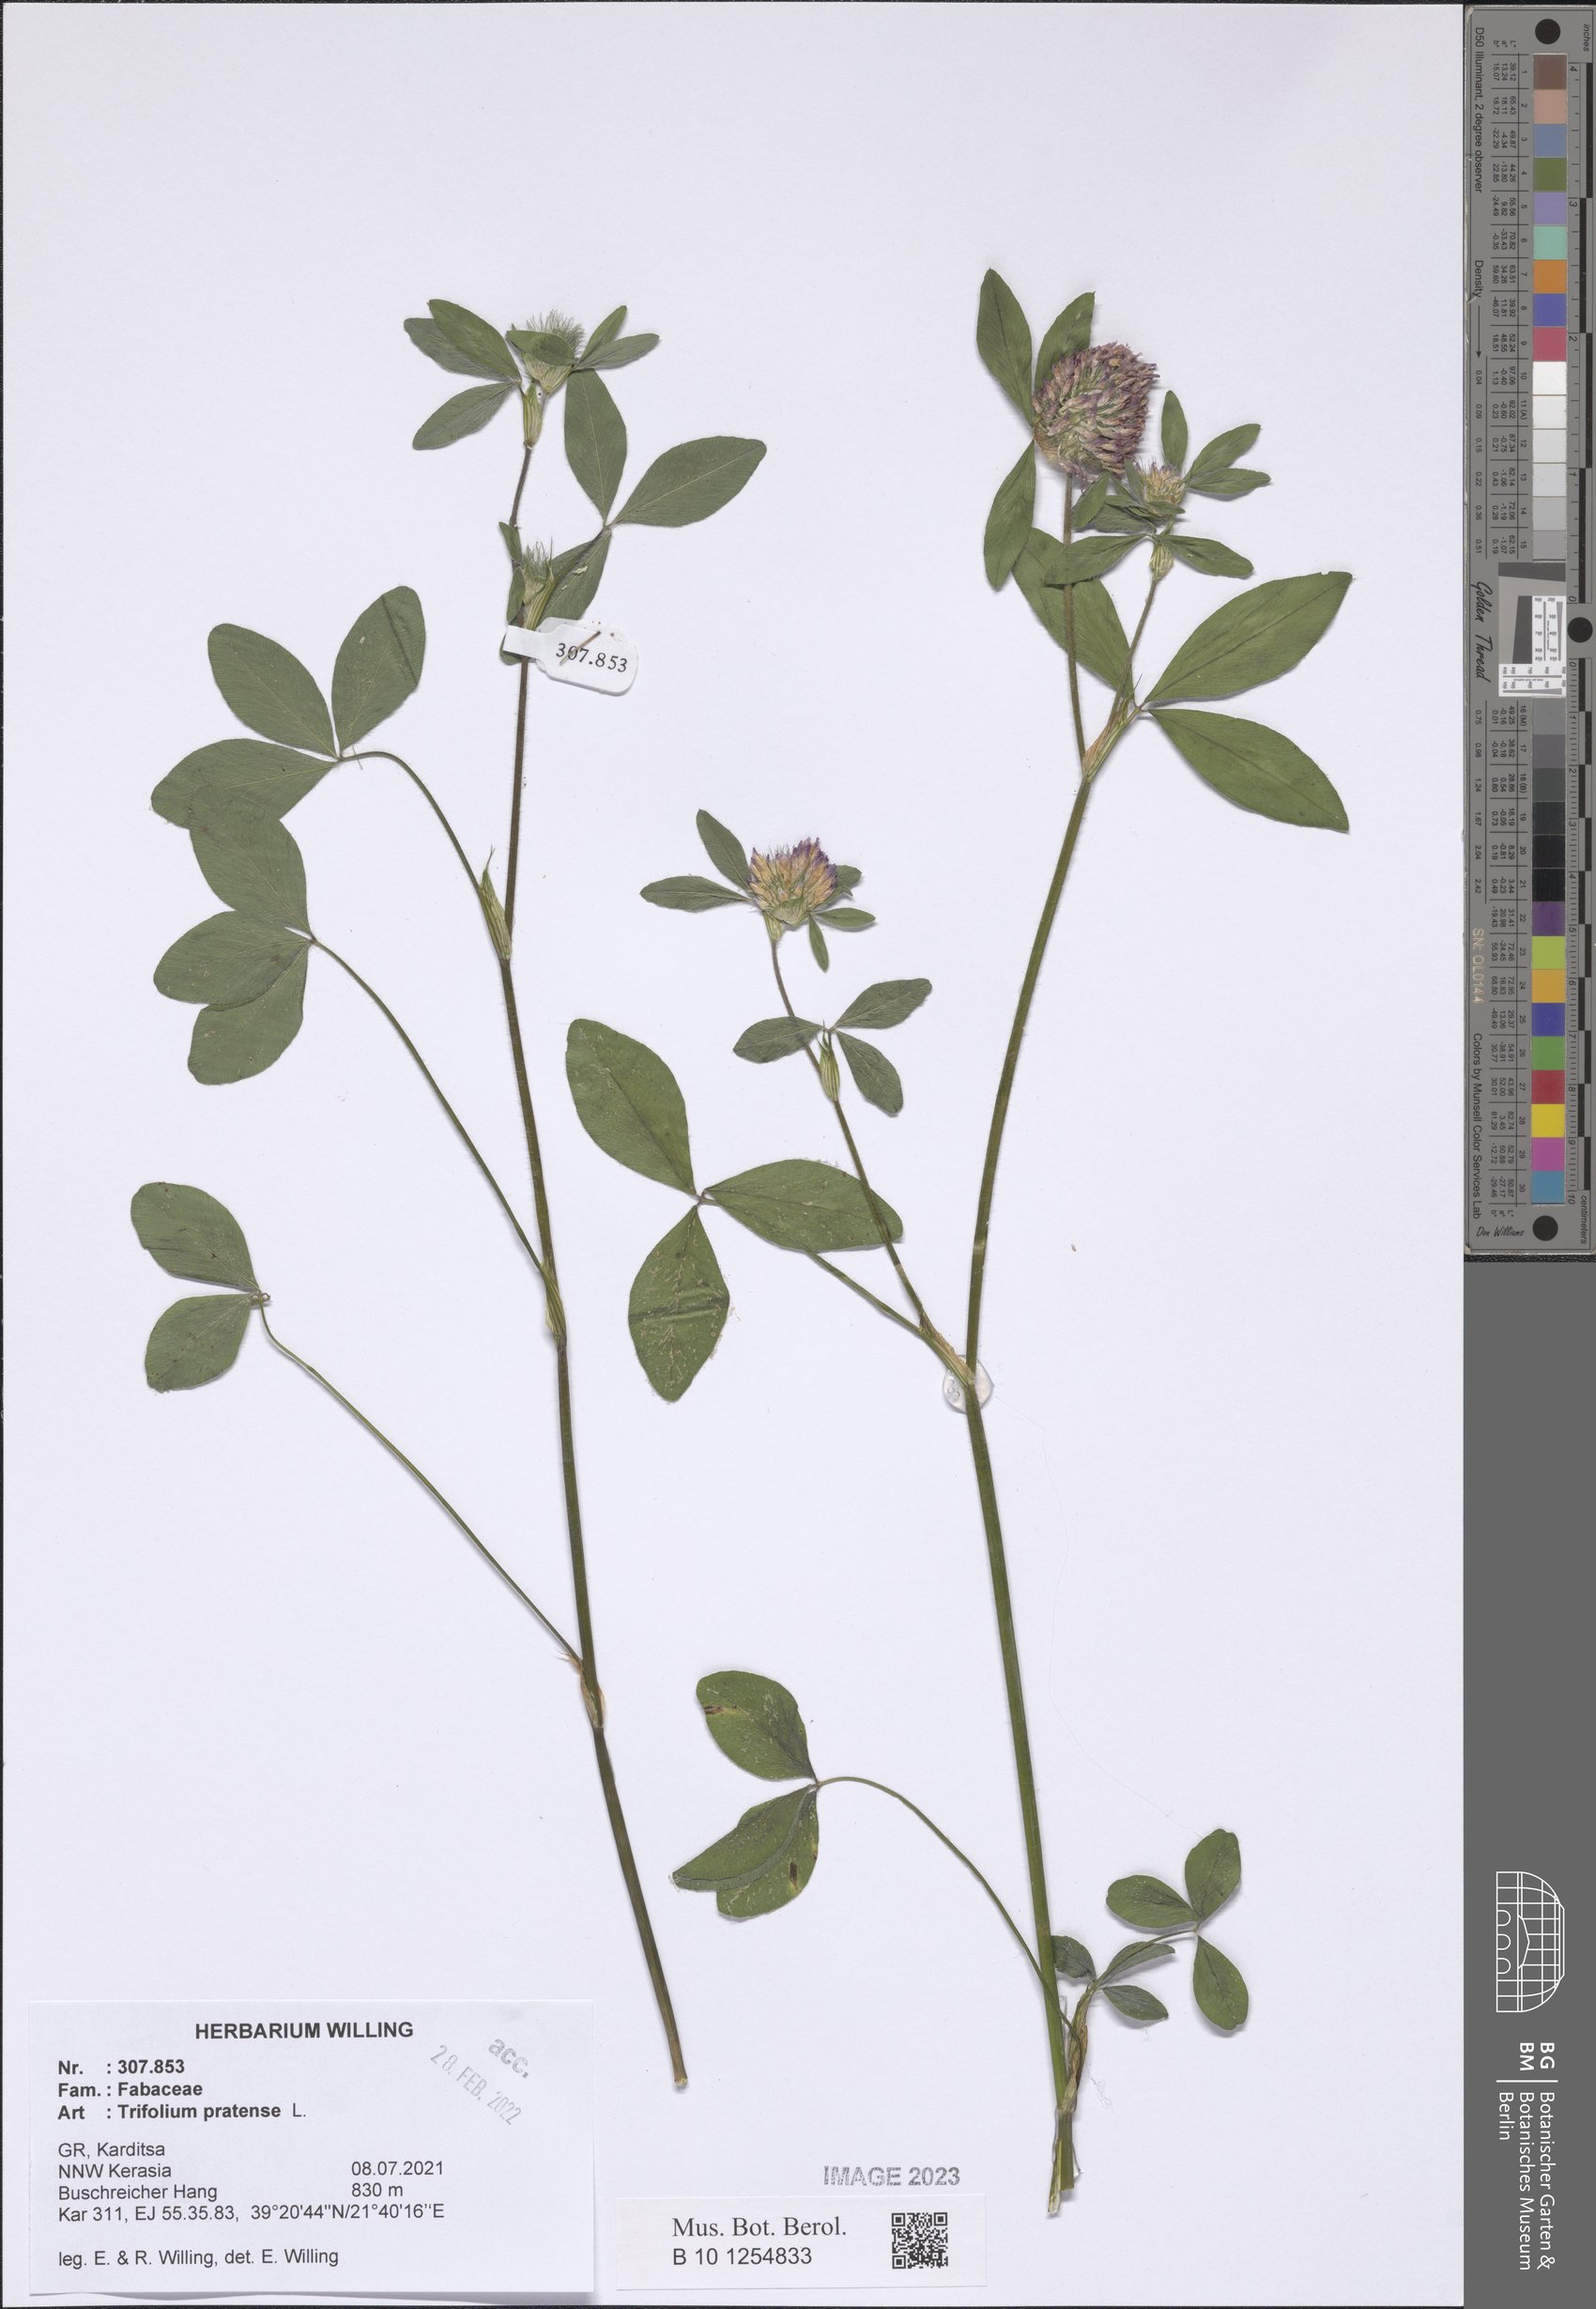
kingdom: Plantae
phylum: Tracheophyta
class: Magnoliopsida
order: Fabales
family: Fabaceae
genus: Trifolium
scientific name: Trifolium pratense
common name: Red clover
